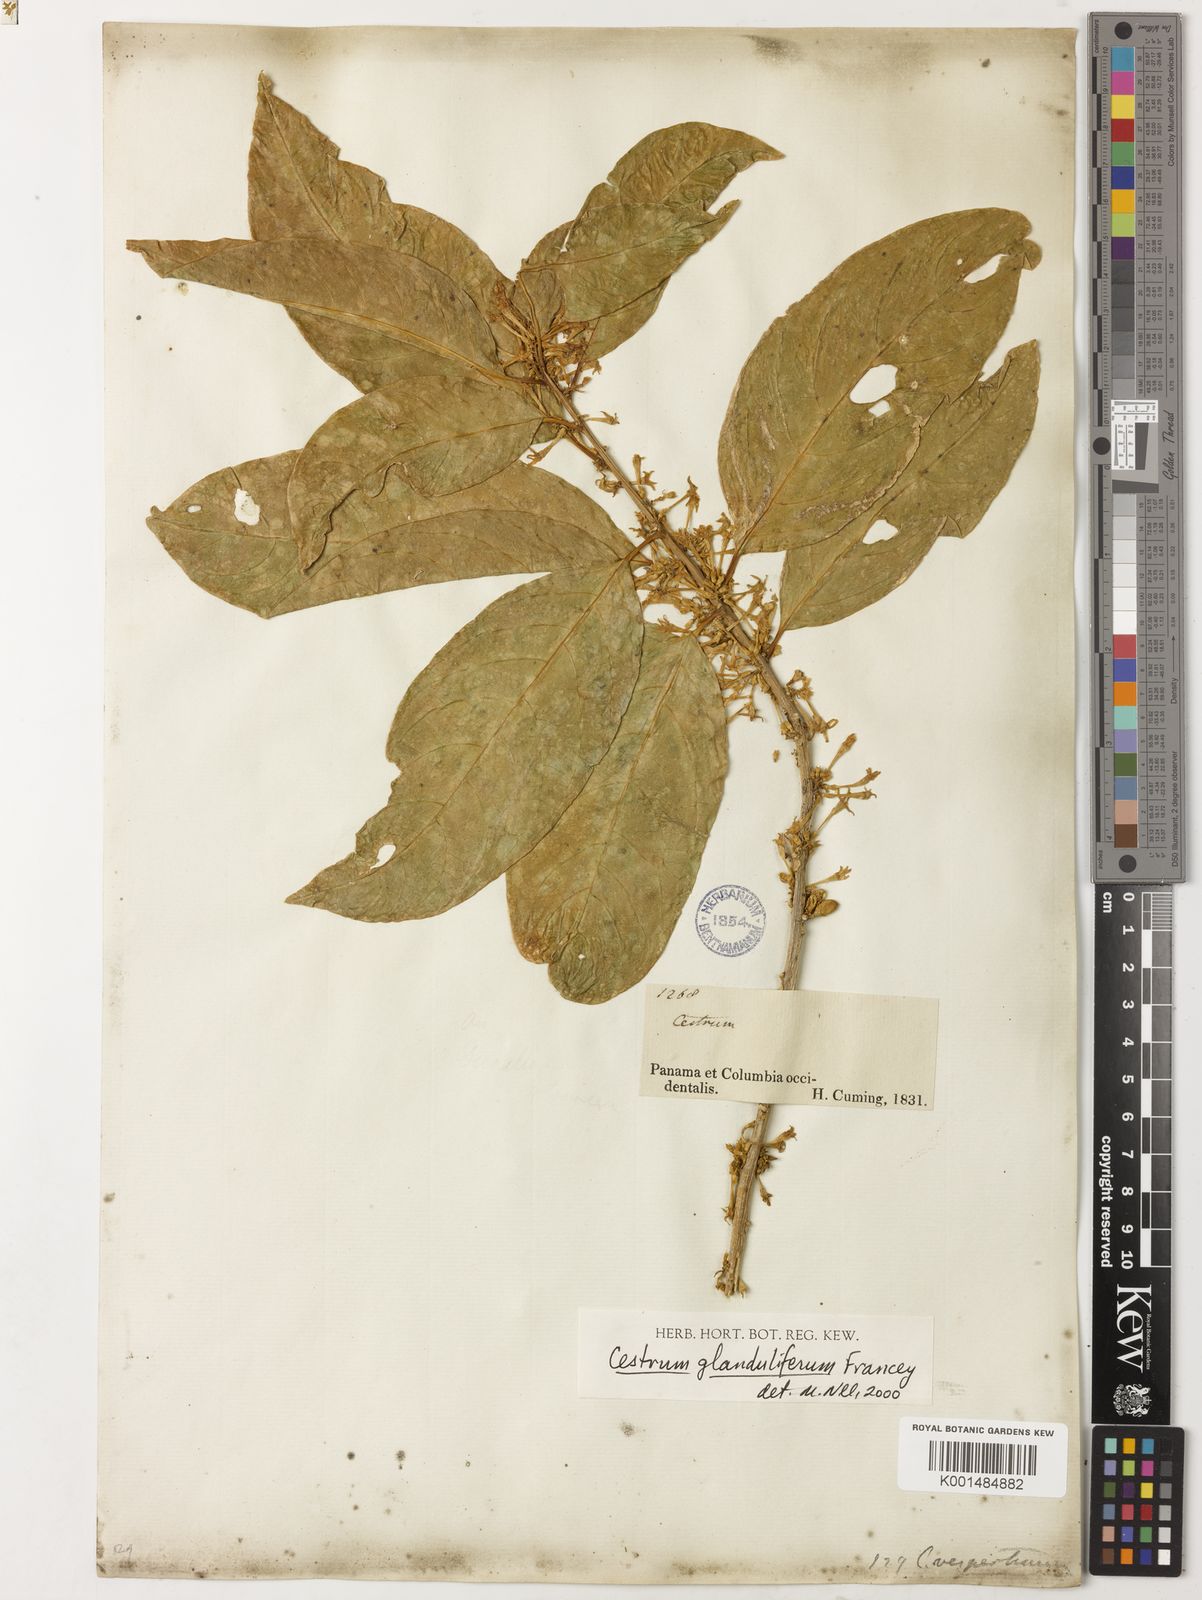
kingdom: Plantae
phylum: Tracheophyta
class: Magnoliopsida
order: Solanales
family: Solanaceae
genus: Cestrum
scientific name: Cestrum glanduliferum
